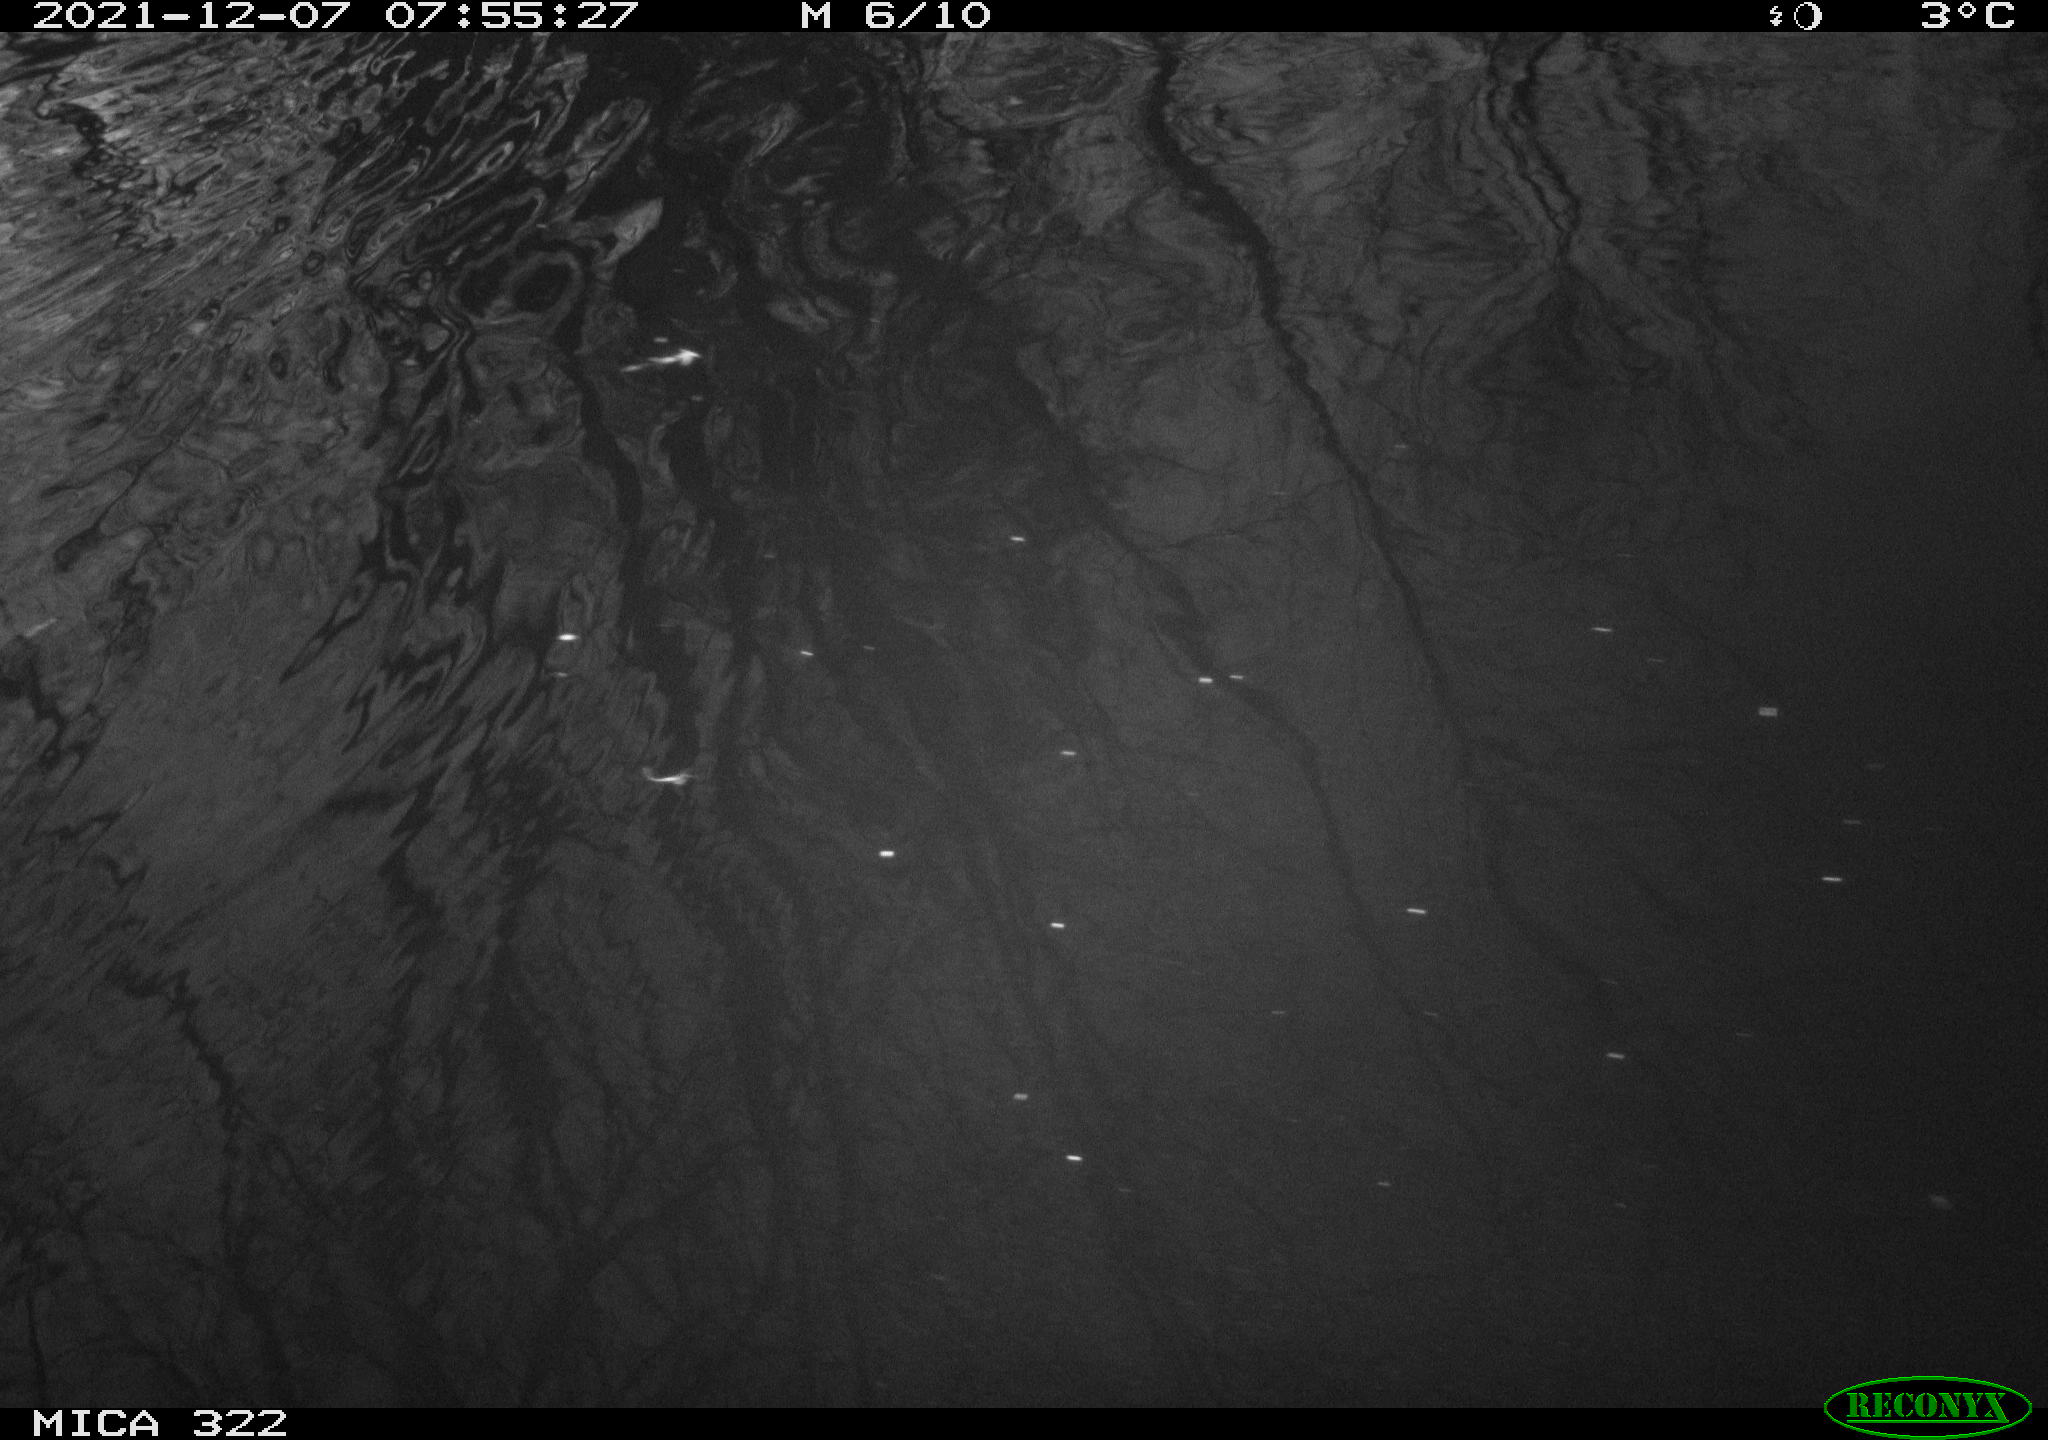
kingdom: Animalia
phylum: Chordata
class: Aves
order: Gruiformes
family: Rallidae
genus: Gallinula
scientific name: Gallinula chloropus
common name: Common moorhen
